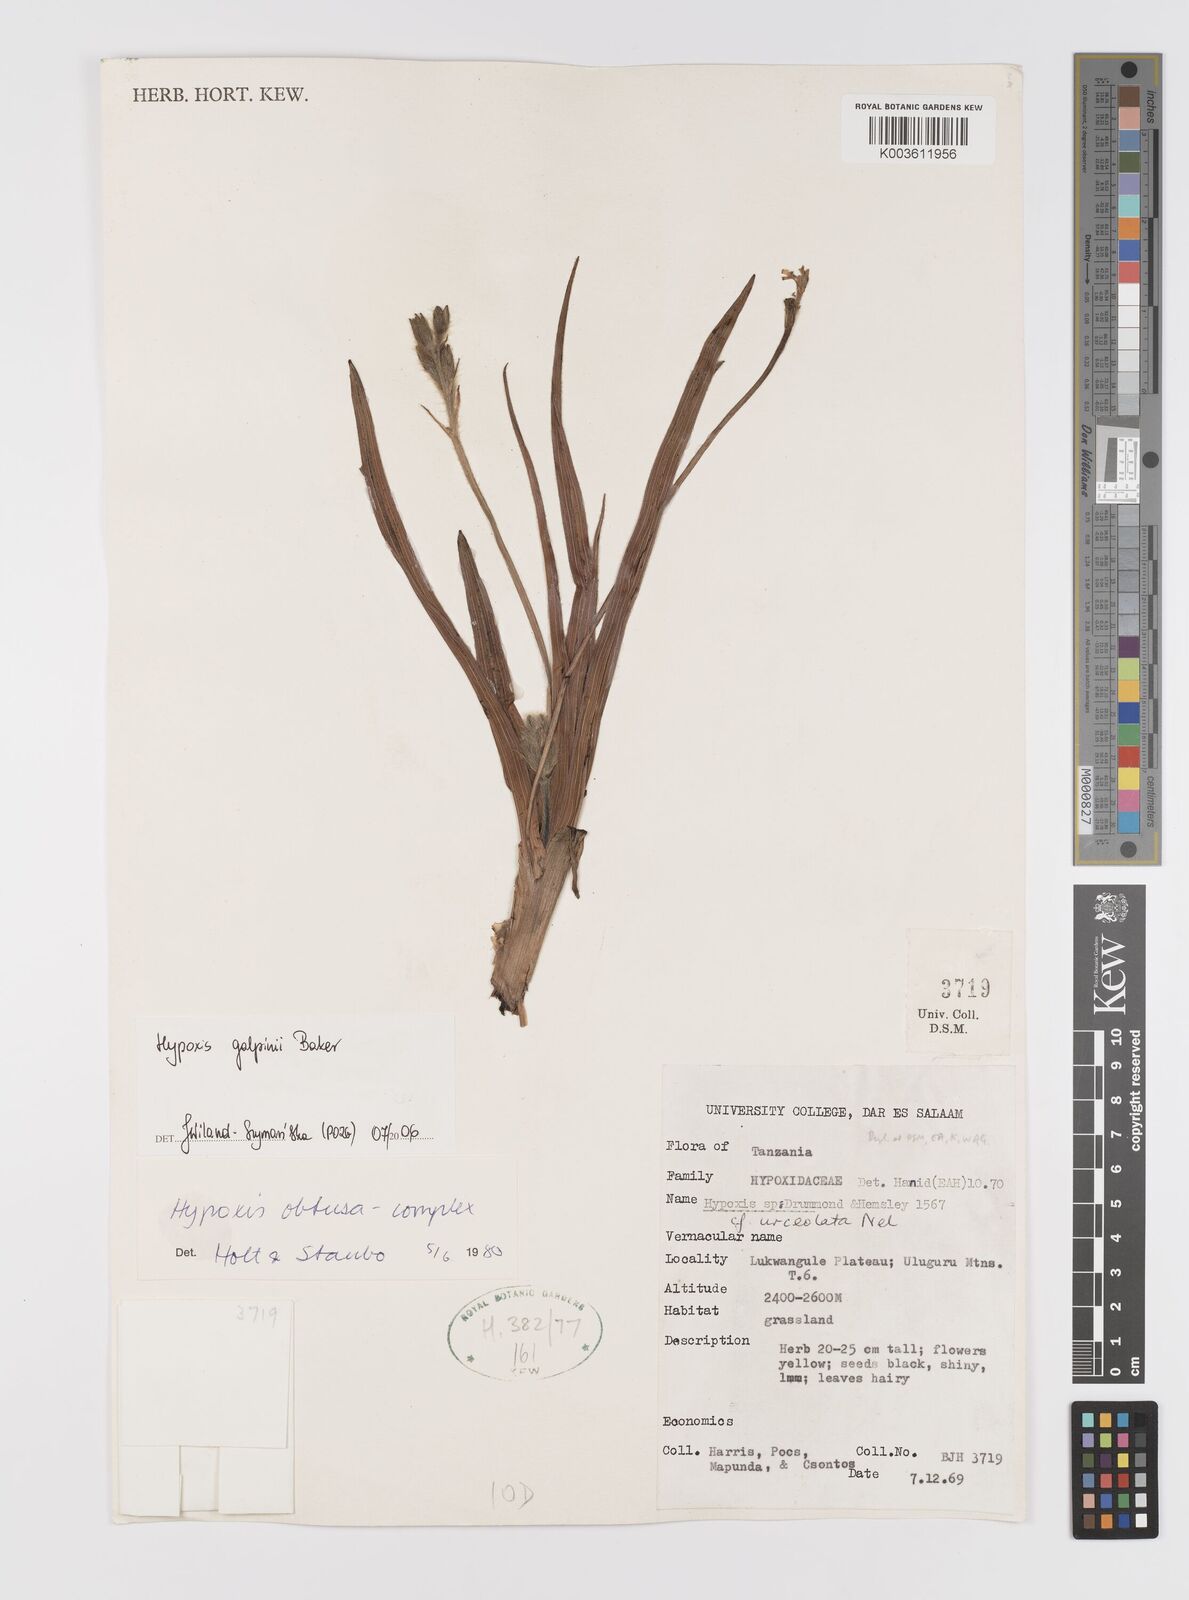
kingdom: Plantae
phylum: Tracheophyta
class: Liliopsida
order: Asparagales
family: Hypoxidaceae
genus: Hypoxis
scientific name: Hypoxis galpinii
